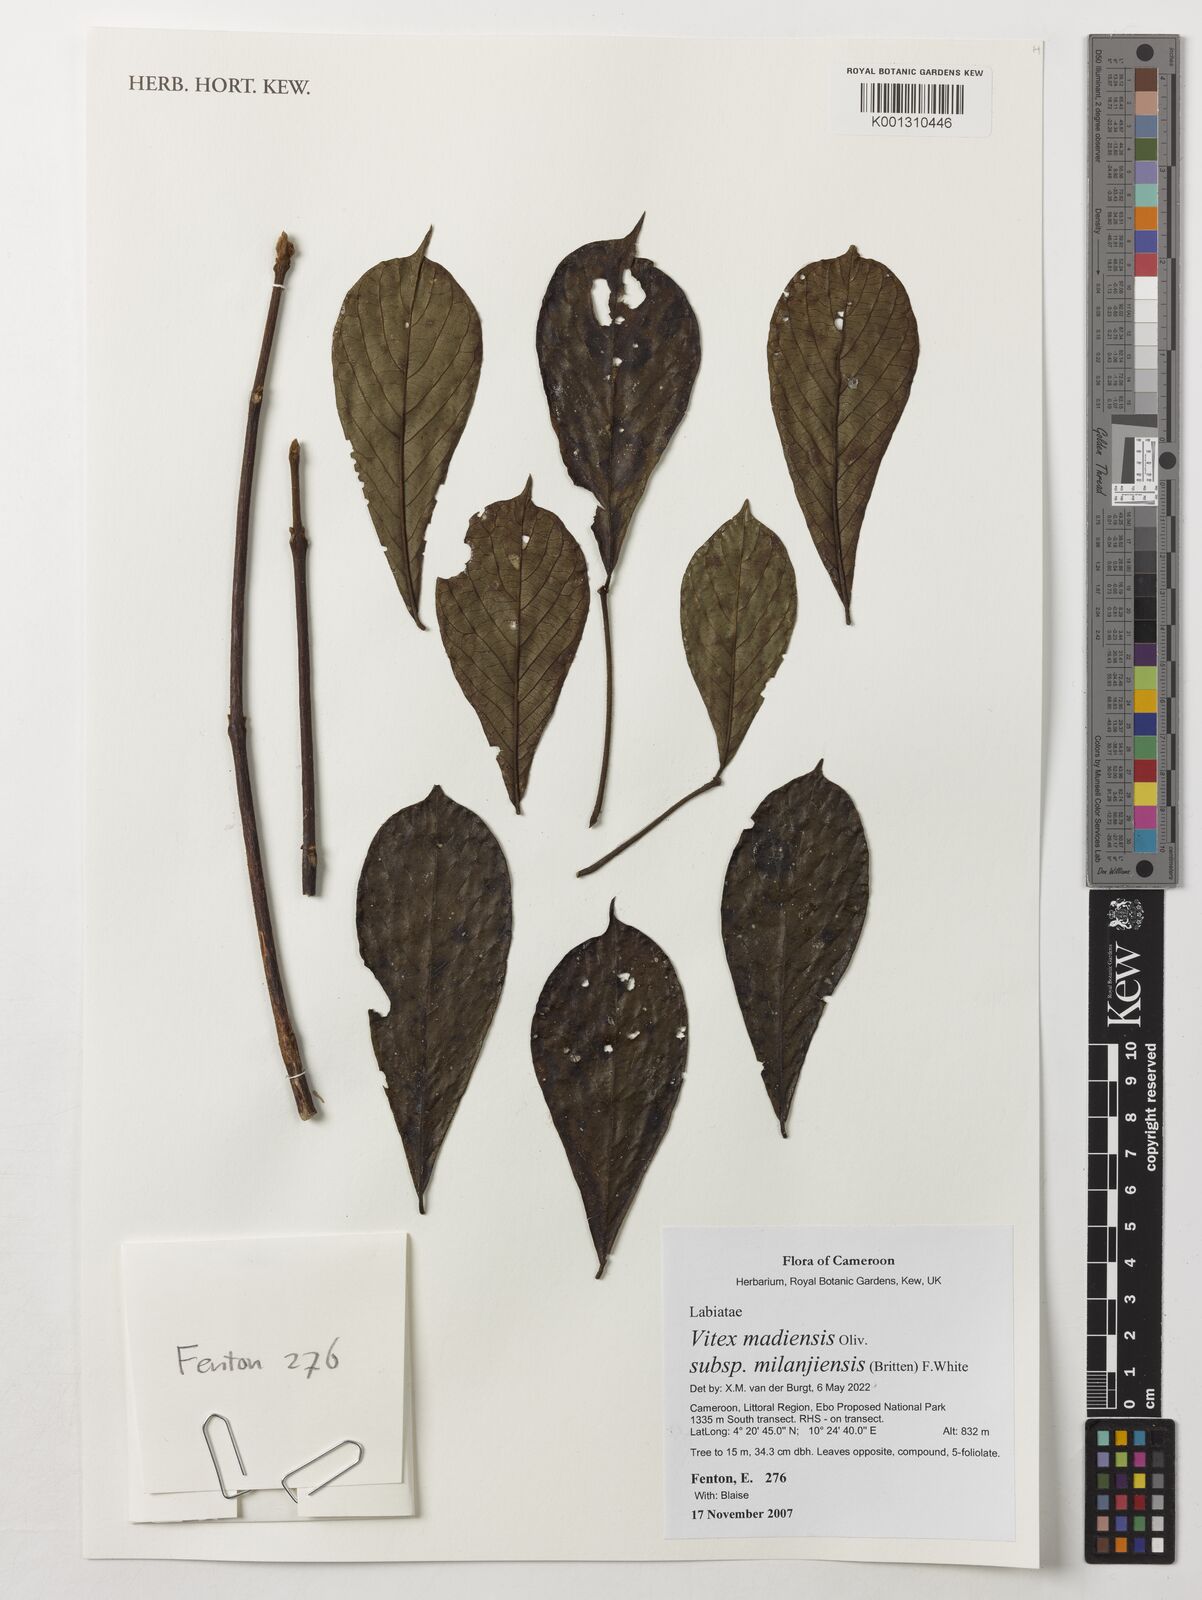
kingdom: Plantae
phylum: Tracheophyta
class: Magnoliopsida
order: Lamiales
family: Lamiaceae
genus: Vitex
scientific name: Vitex madiensis
